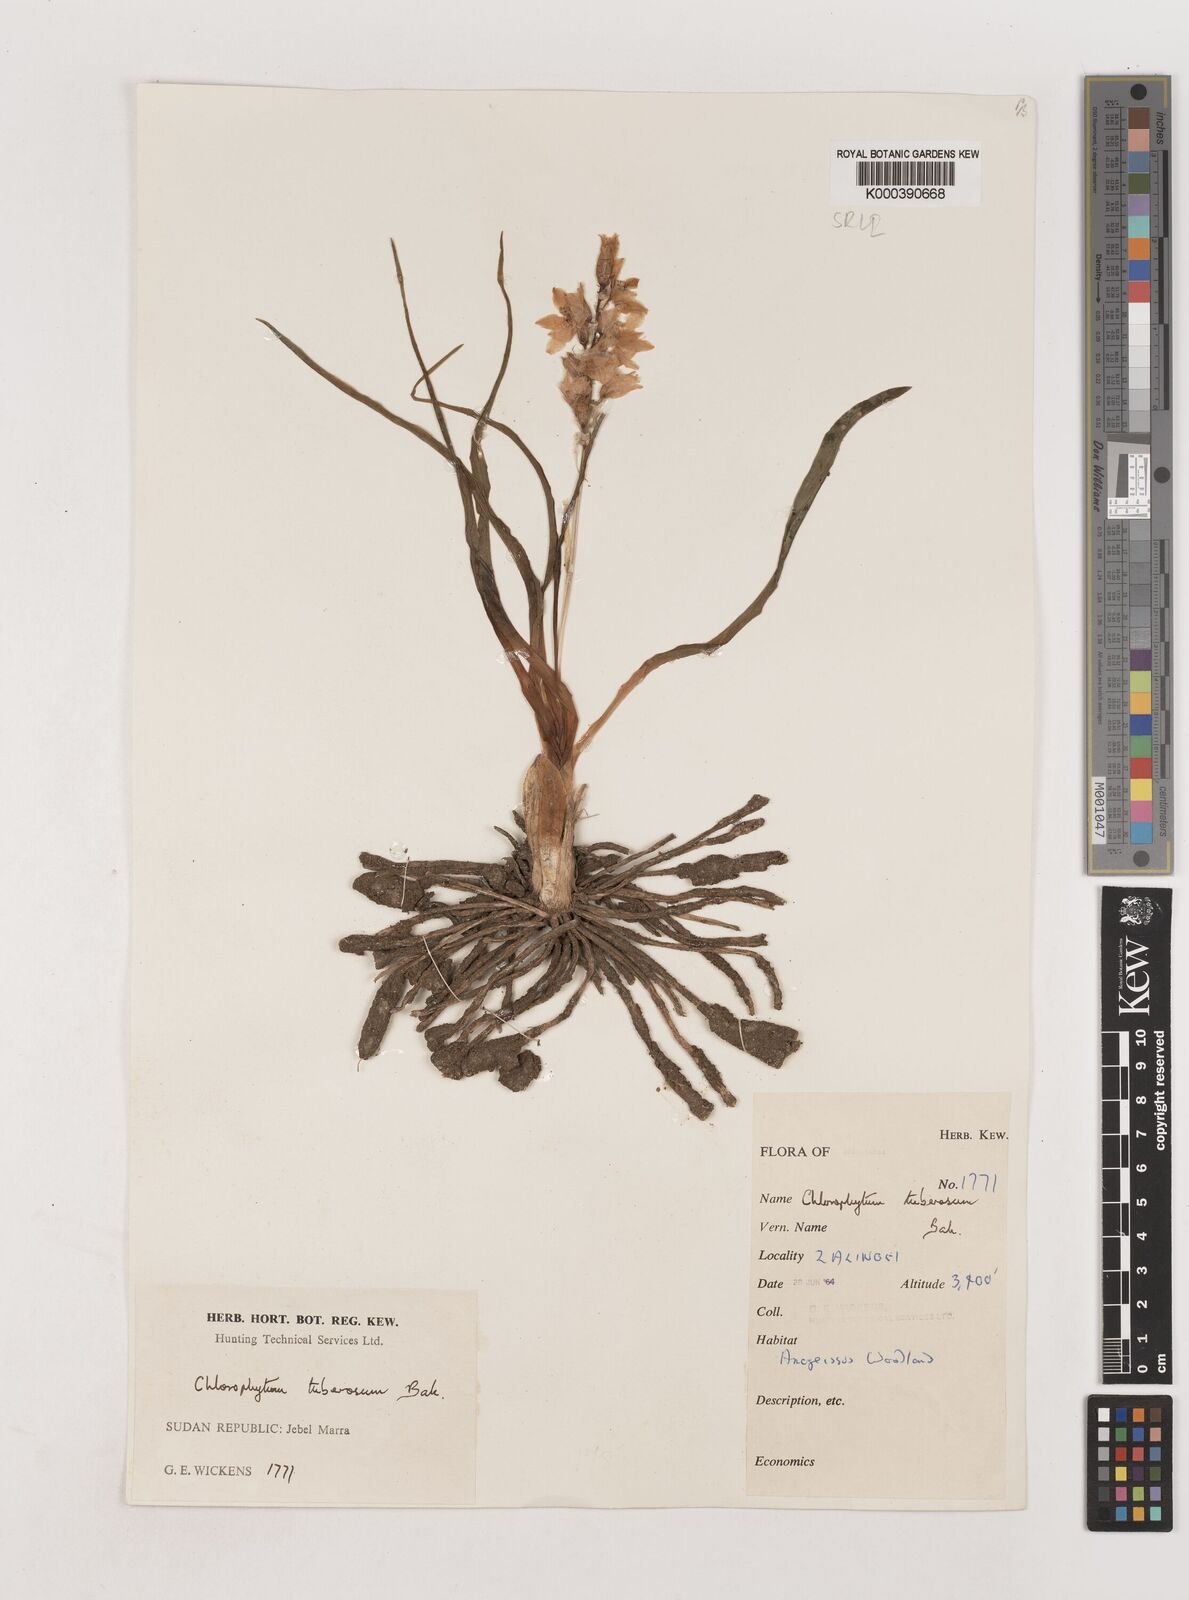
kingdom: Plantae
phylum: Tracheophyta
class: Liliopsida
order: Asparagales
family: Asparagaceae
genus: Chlorophytum
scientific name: Chlorophytum tuberosum
